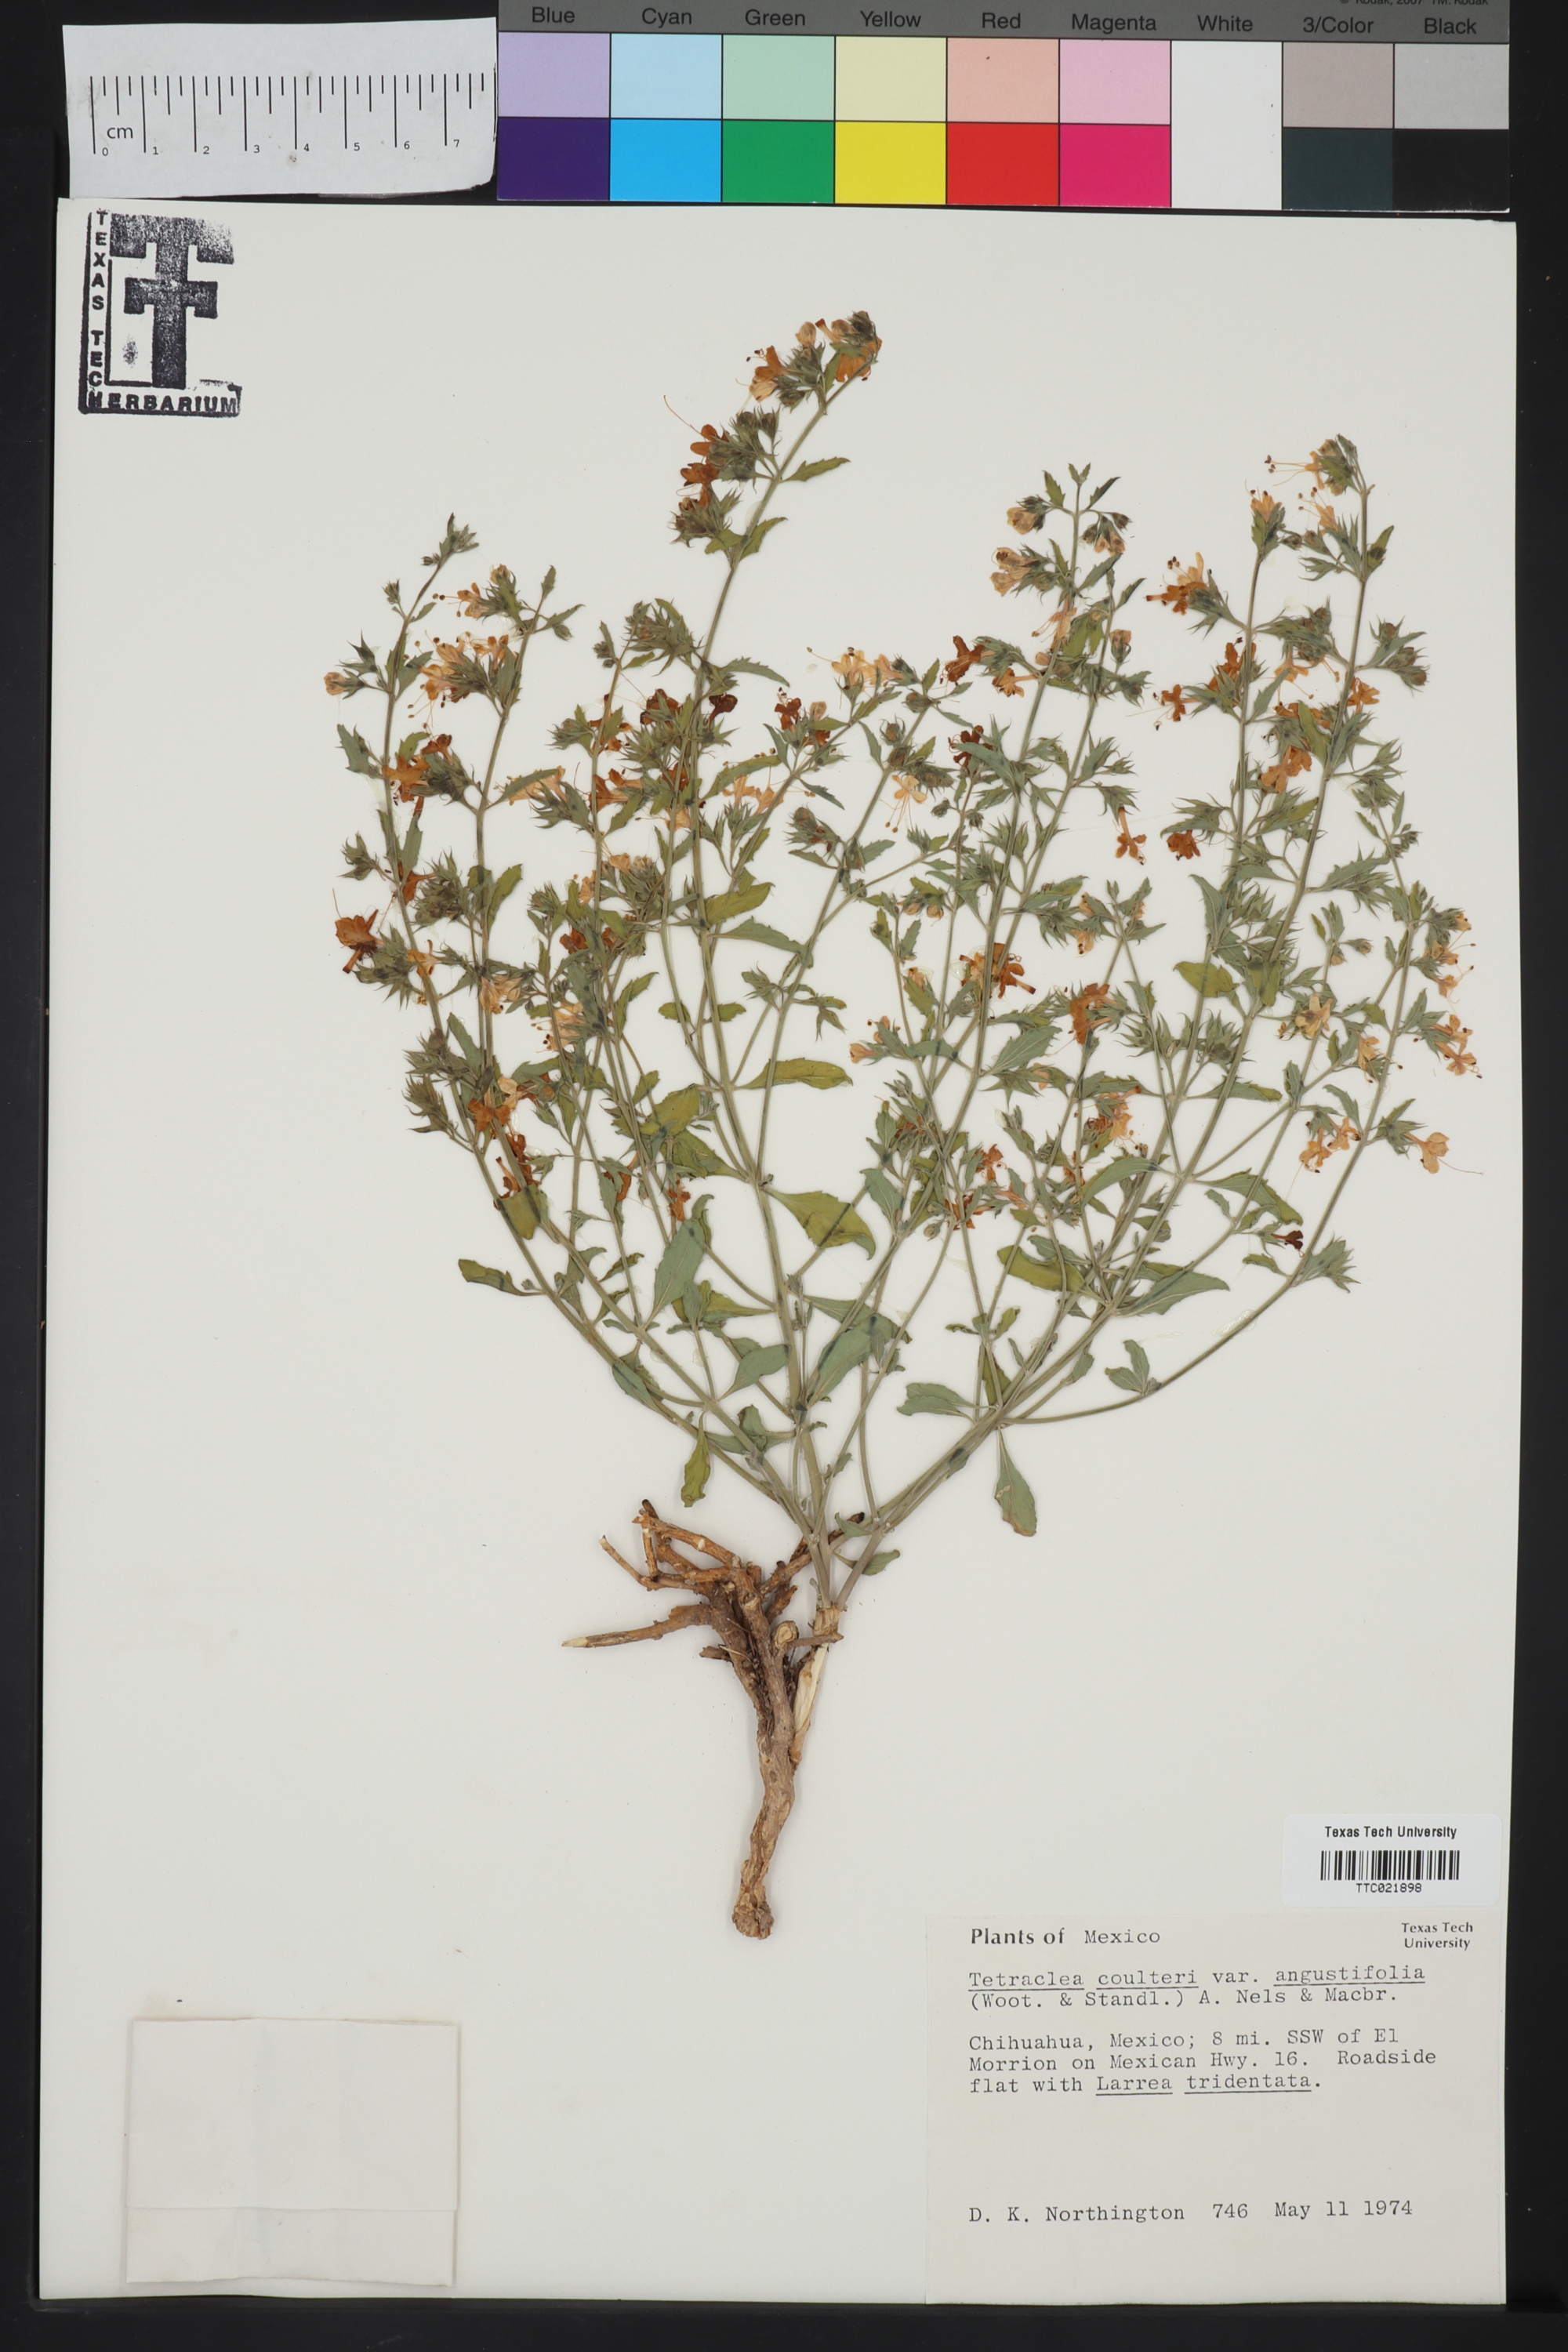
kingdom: Plantae
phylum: Tracheophyta
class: Magnoliopsida
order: Lamiales
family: Lamiaceae
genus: Tetraclea
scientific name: Tetraclea coulteri
